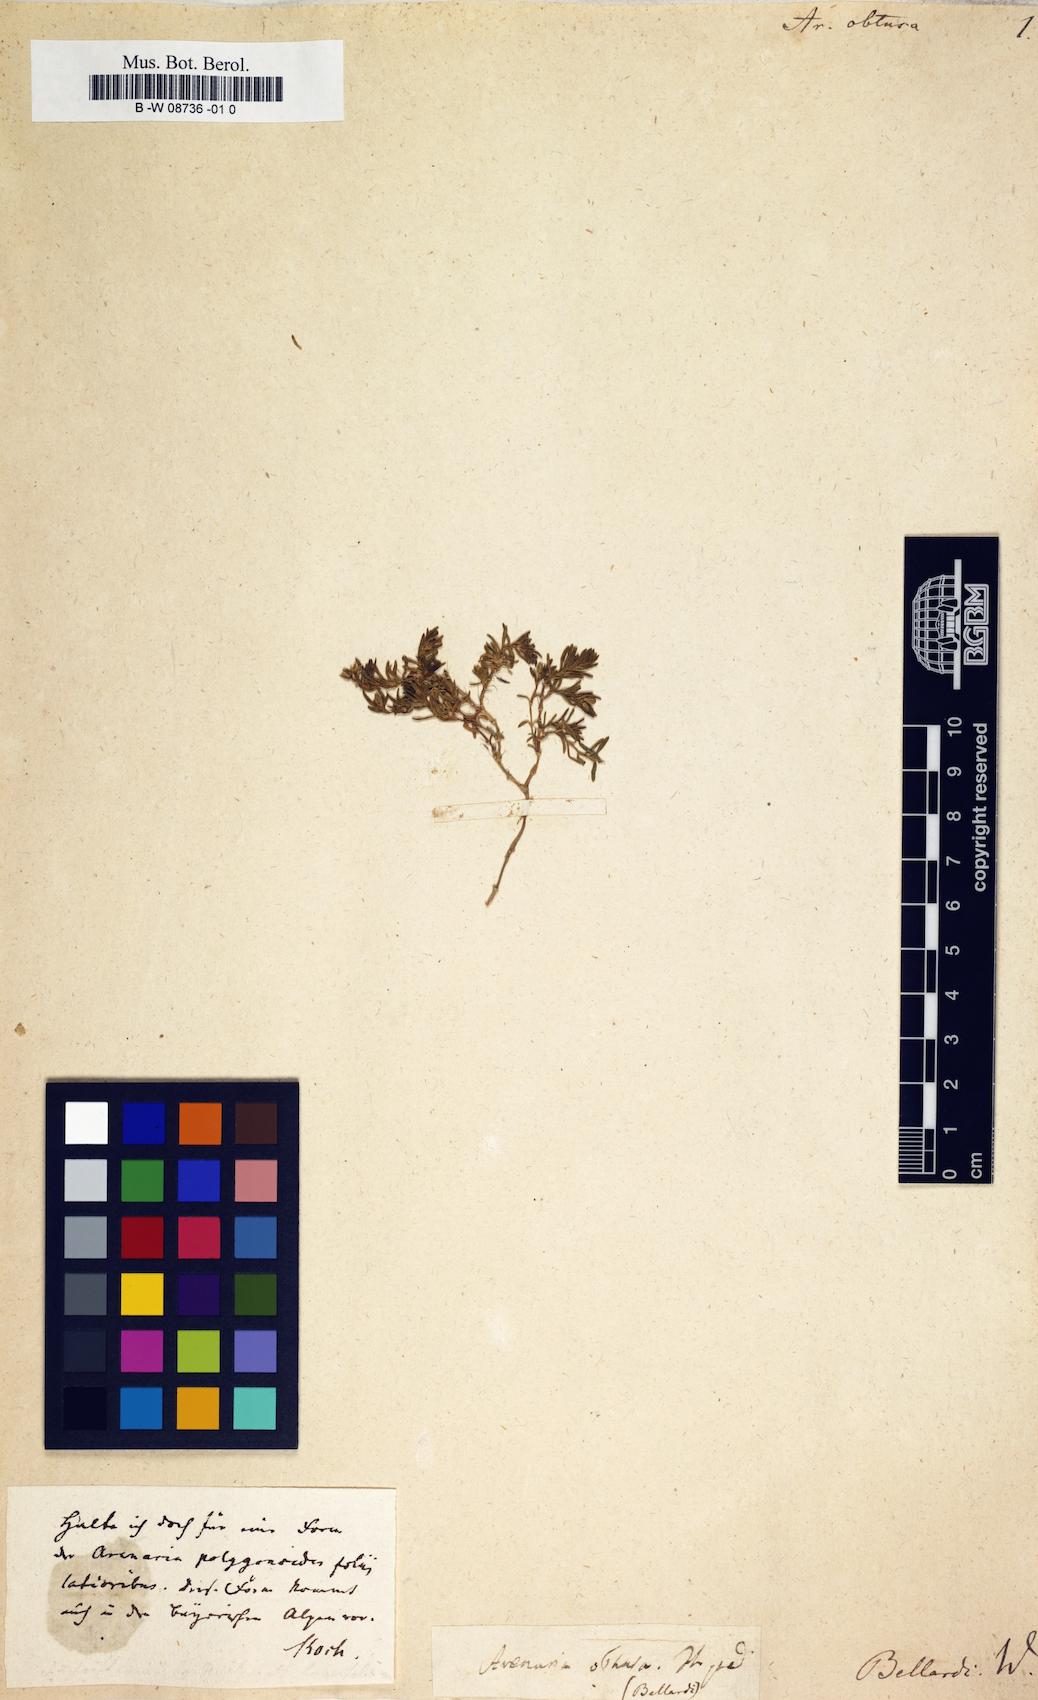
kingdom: Plantae
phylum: Tracheophyta
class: Magnoliopsida
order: Caryophyllales
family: Caryophyllaceae
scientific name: Caryophyllaceae
